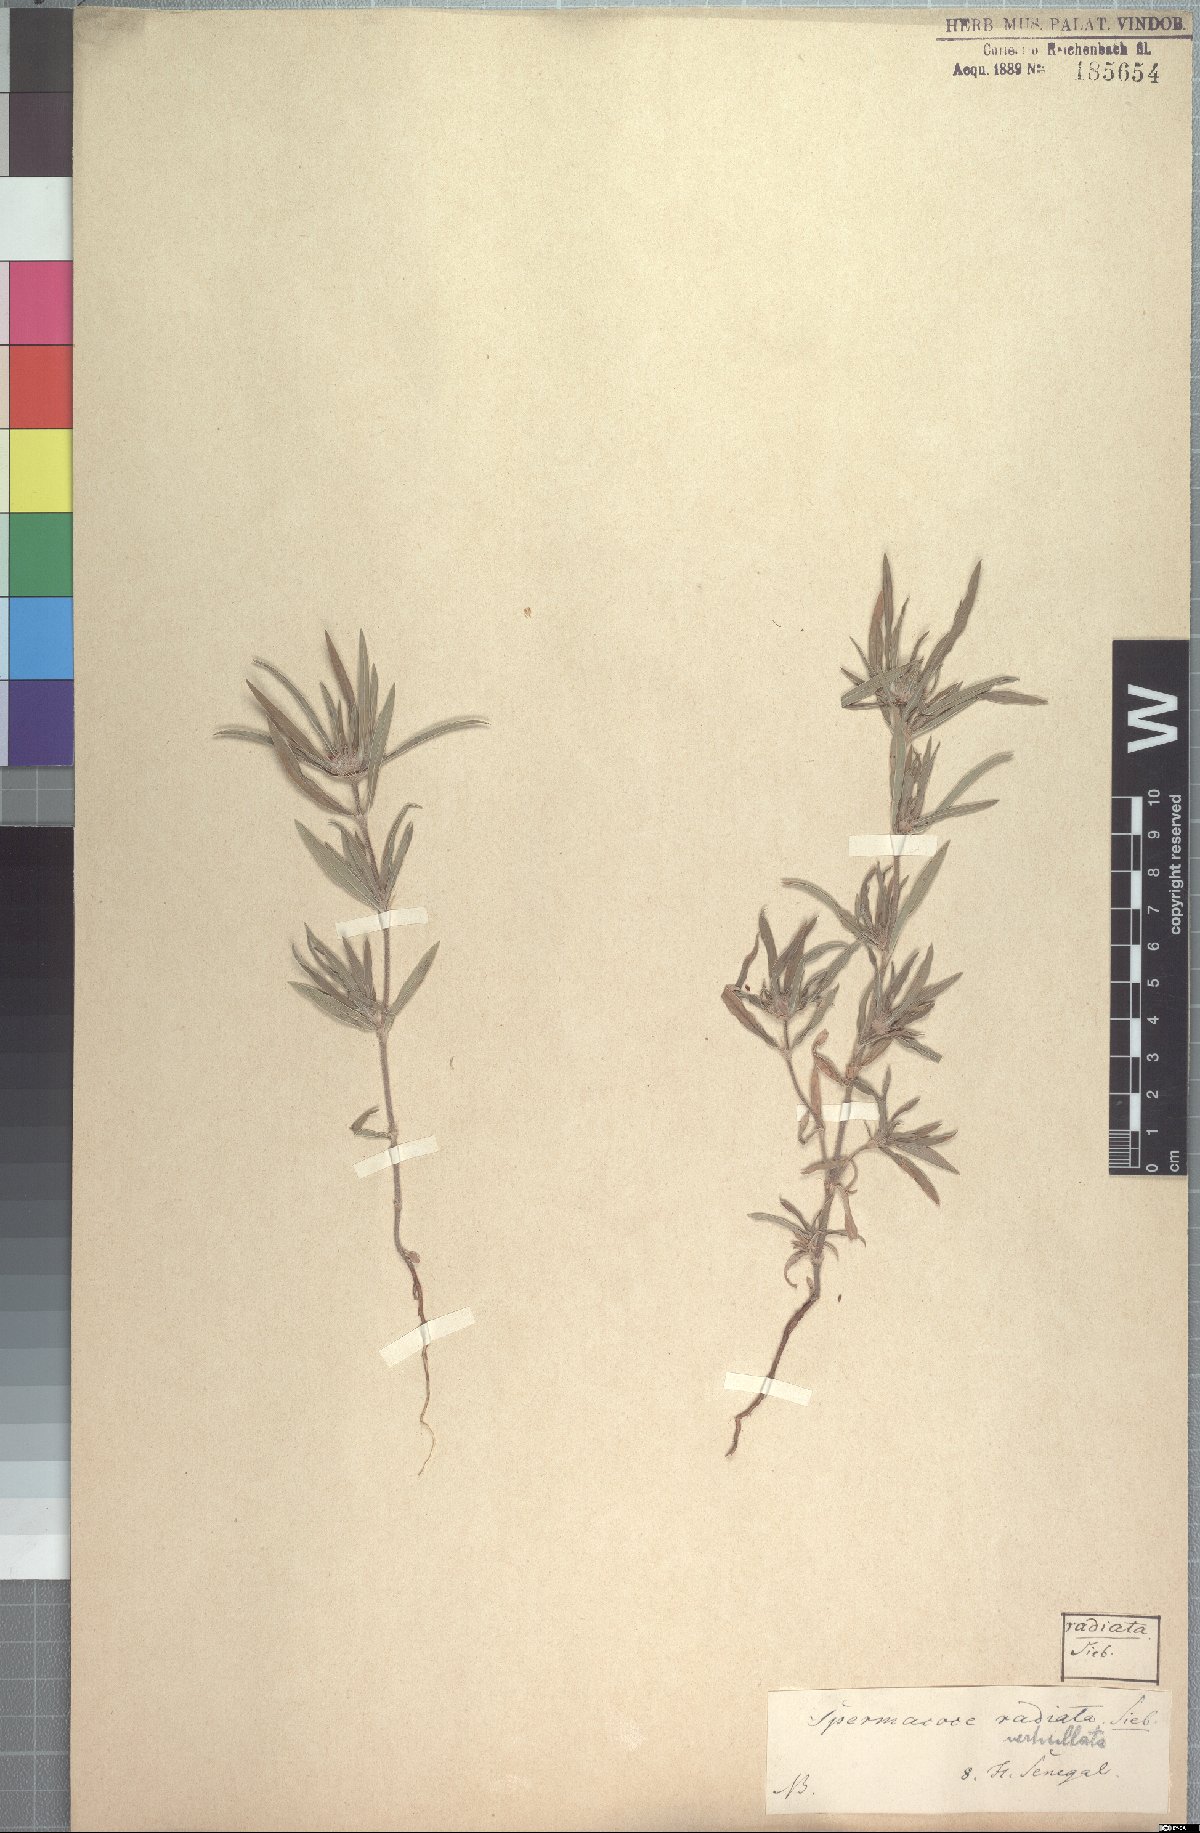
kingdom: Plantae
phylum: Tracheophyta
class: Magnoliopsida
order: Gentianales
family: Rubiaceae
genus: Spermacoce
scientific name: Spermacoce radiata
